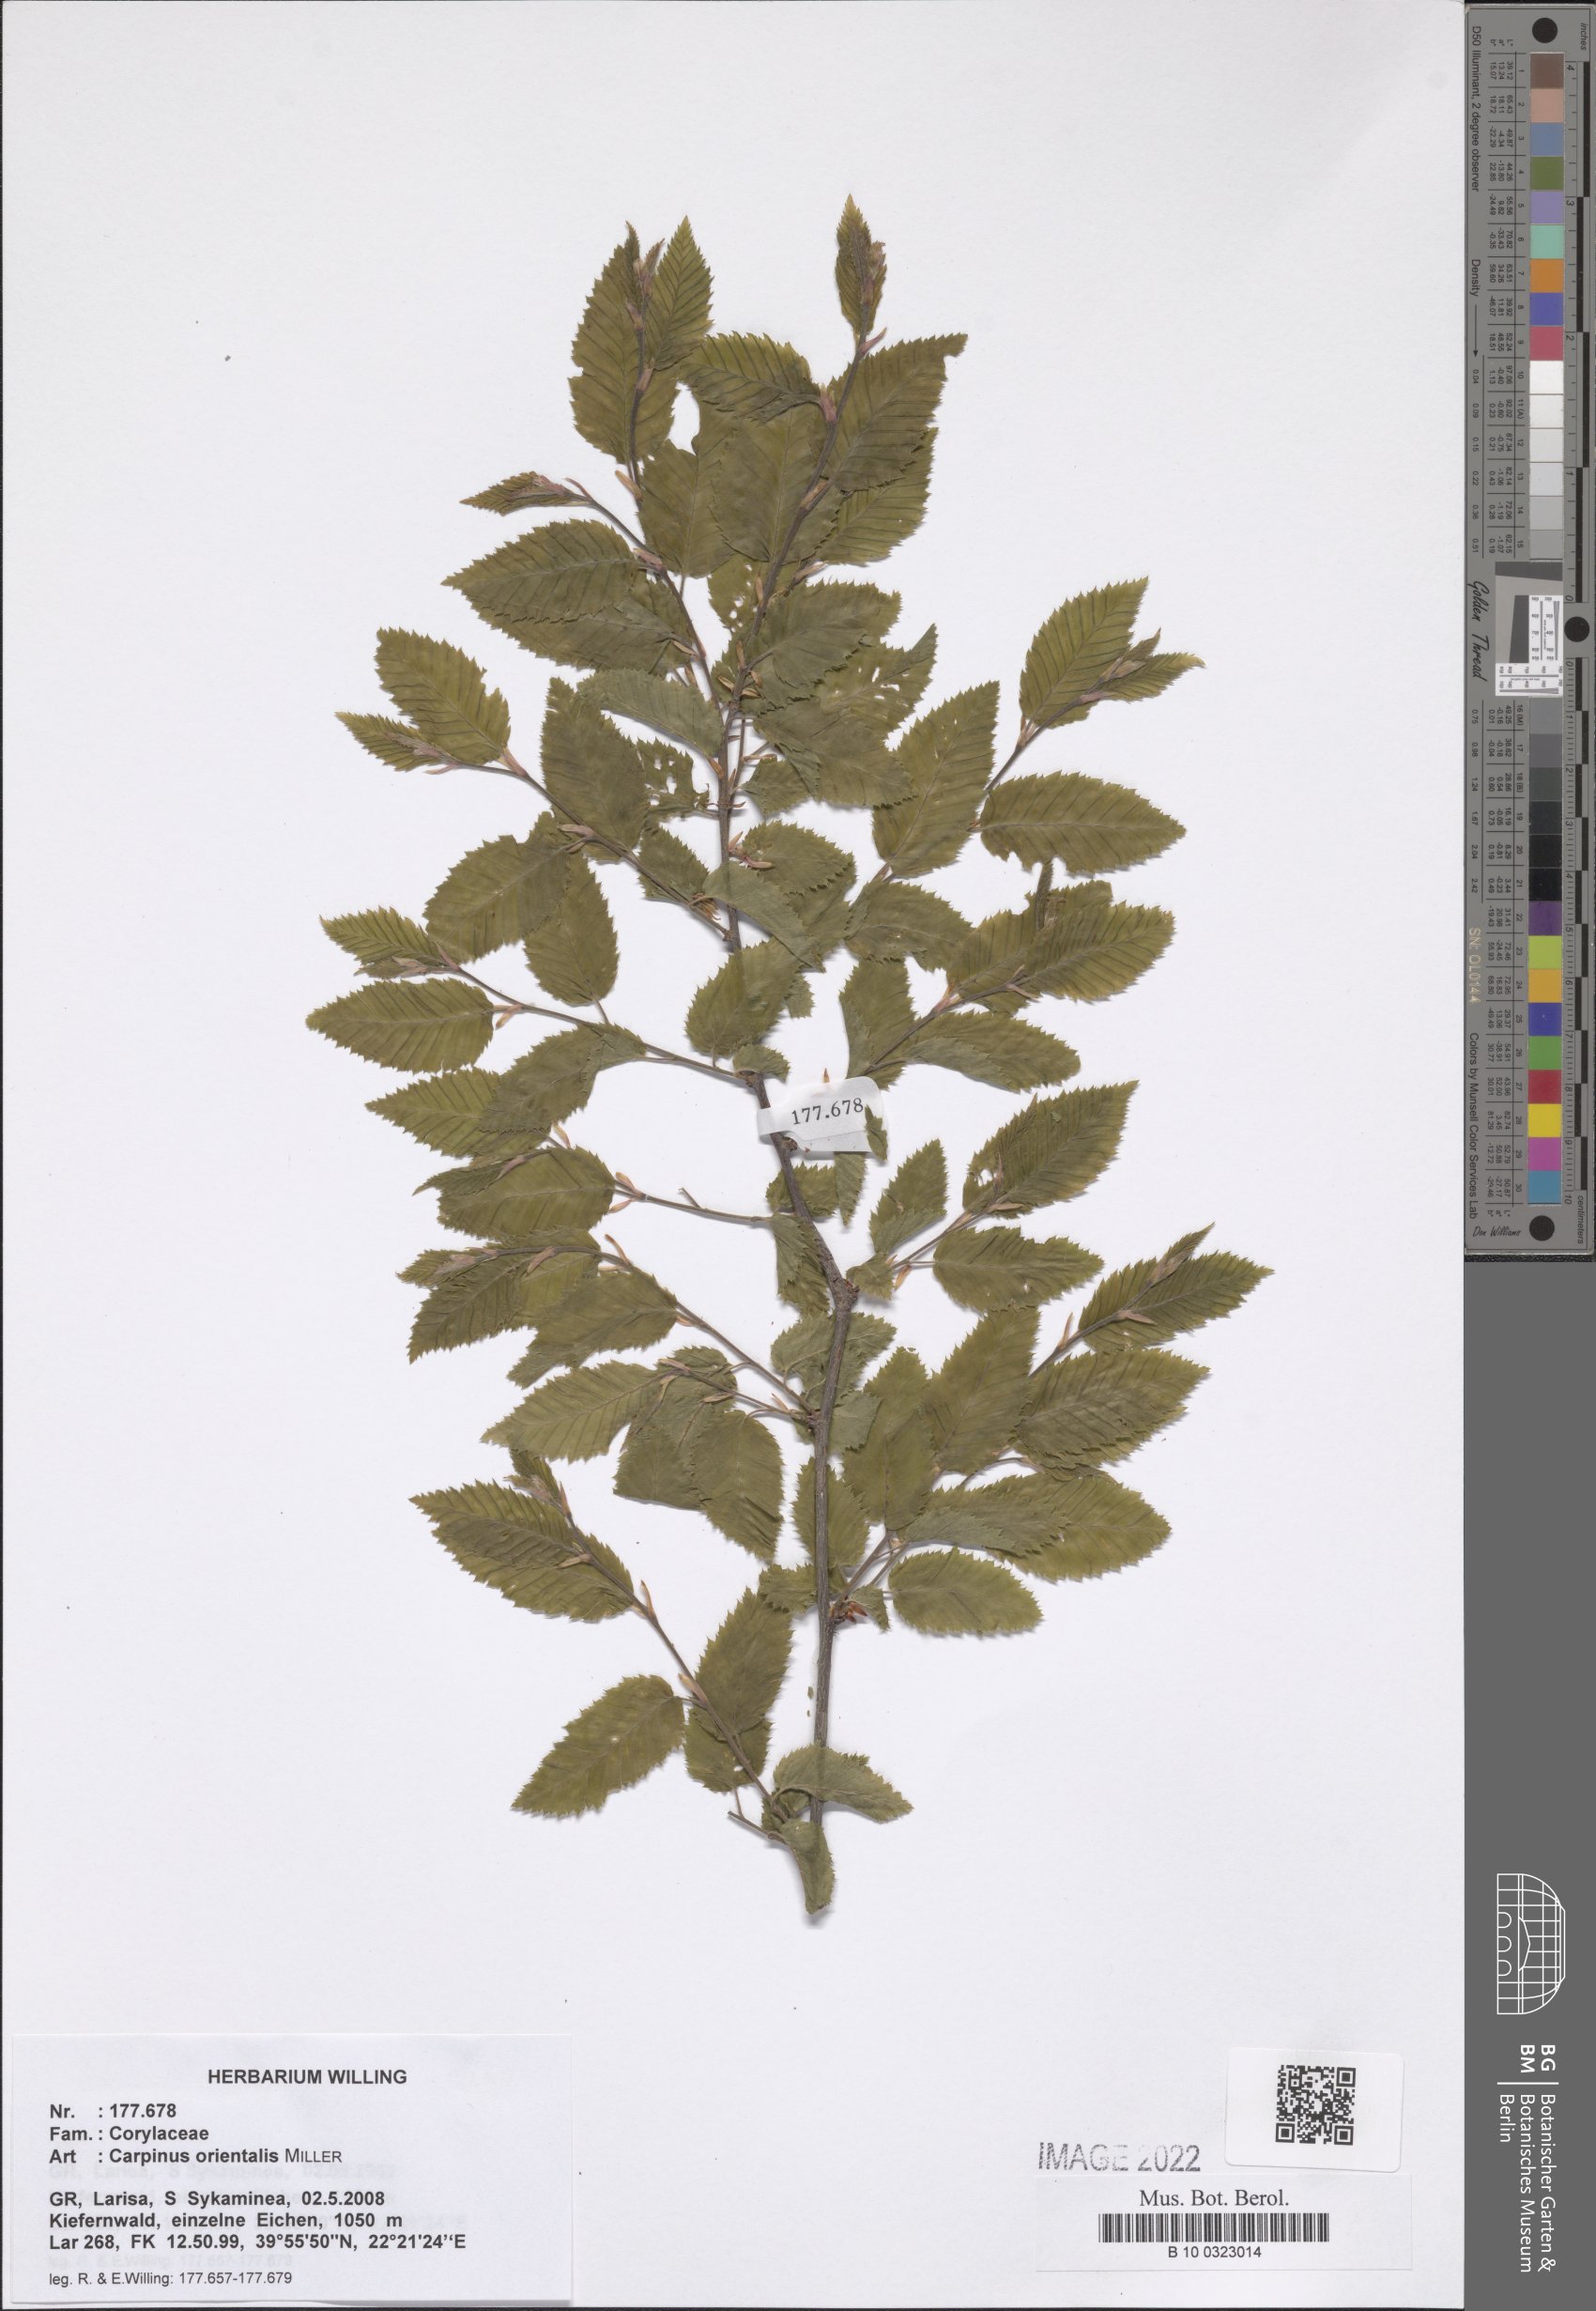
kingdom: Plantae
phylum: Tracheophyta
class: Magnoliopsida
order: Fagales
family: Betulaceae
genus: Carpinus
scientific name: Carpinus orientalis
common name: Eastern hornbeam
